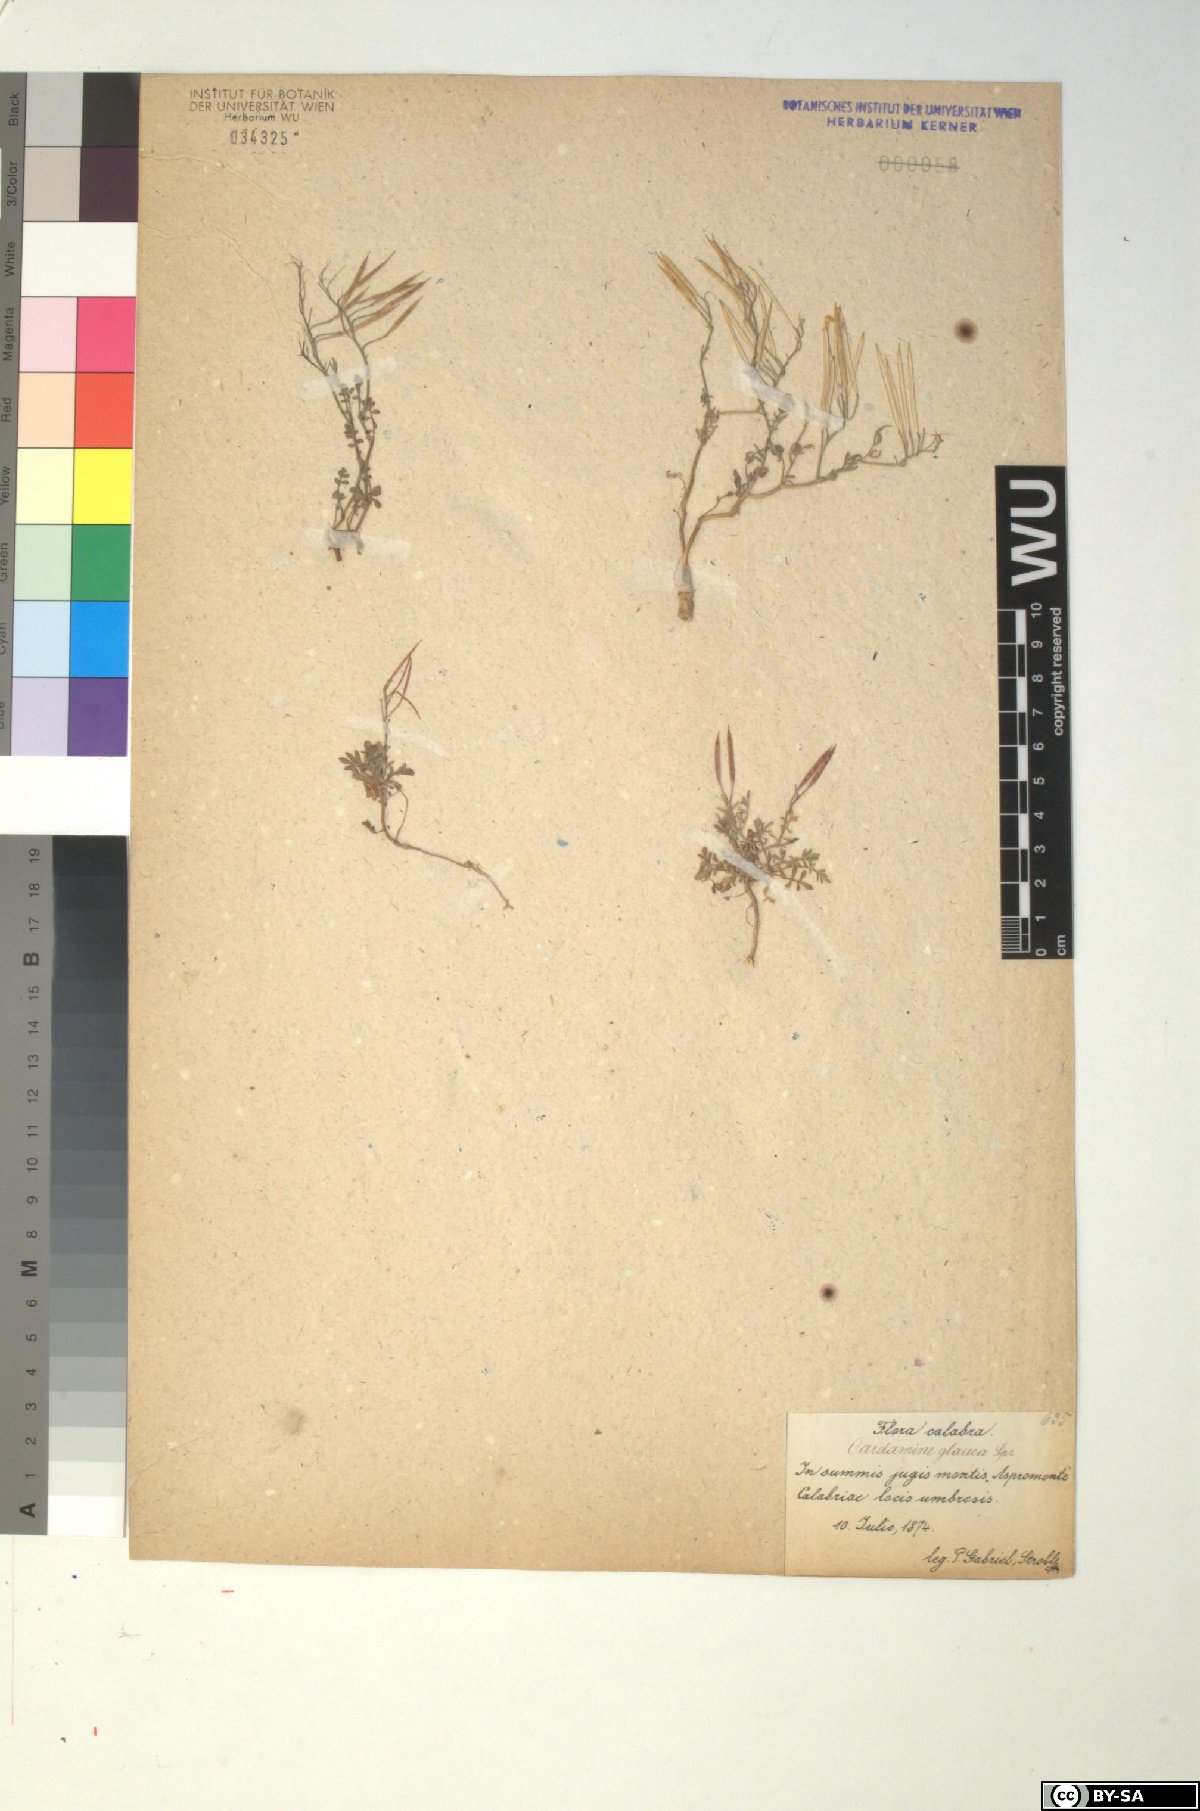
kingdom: Plantae
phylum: Tracheophyta
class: Magnoliopsida
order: Brassicales
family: Brassicaceae
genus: Cardamine
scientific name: Cardamine glauca
